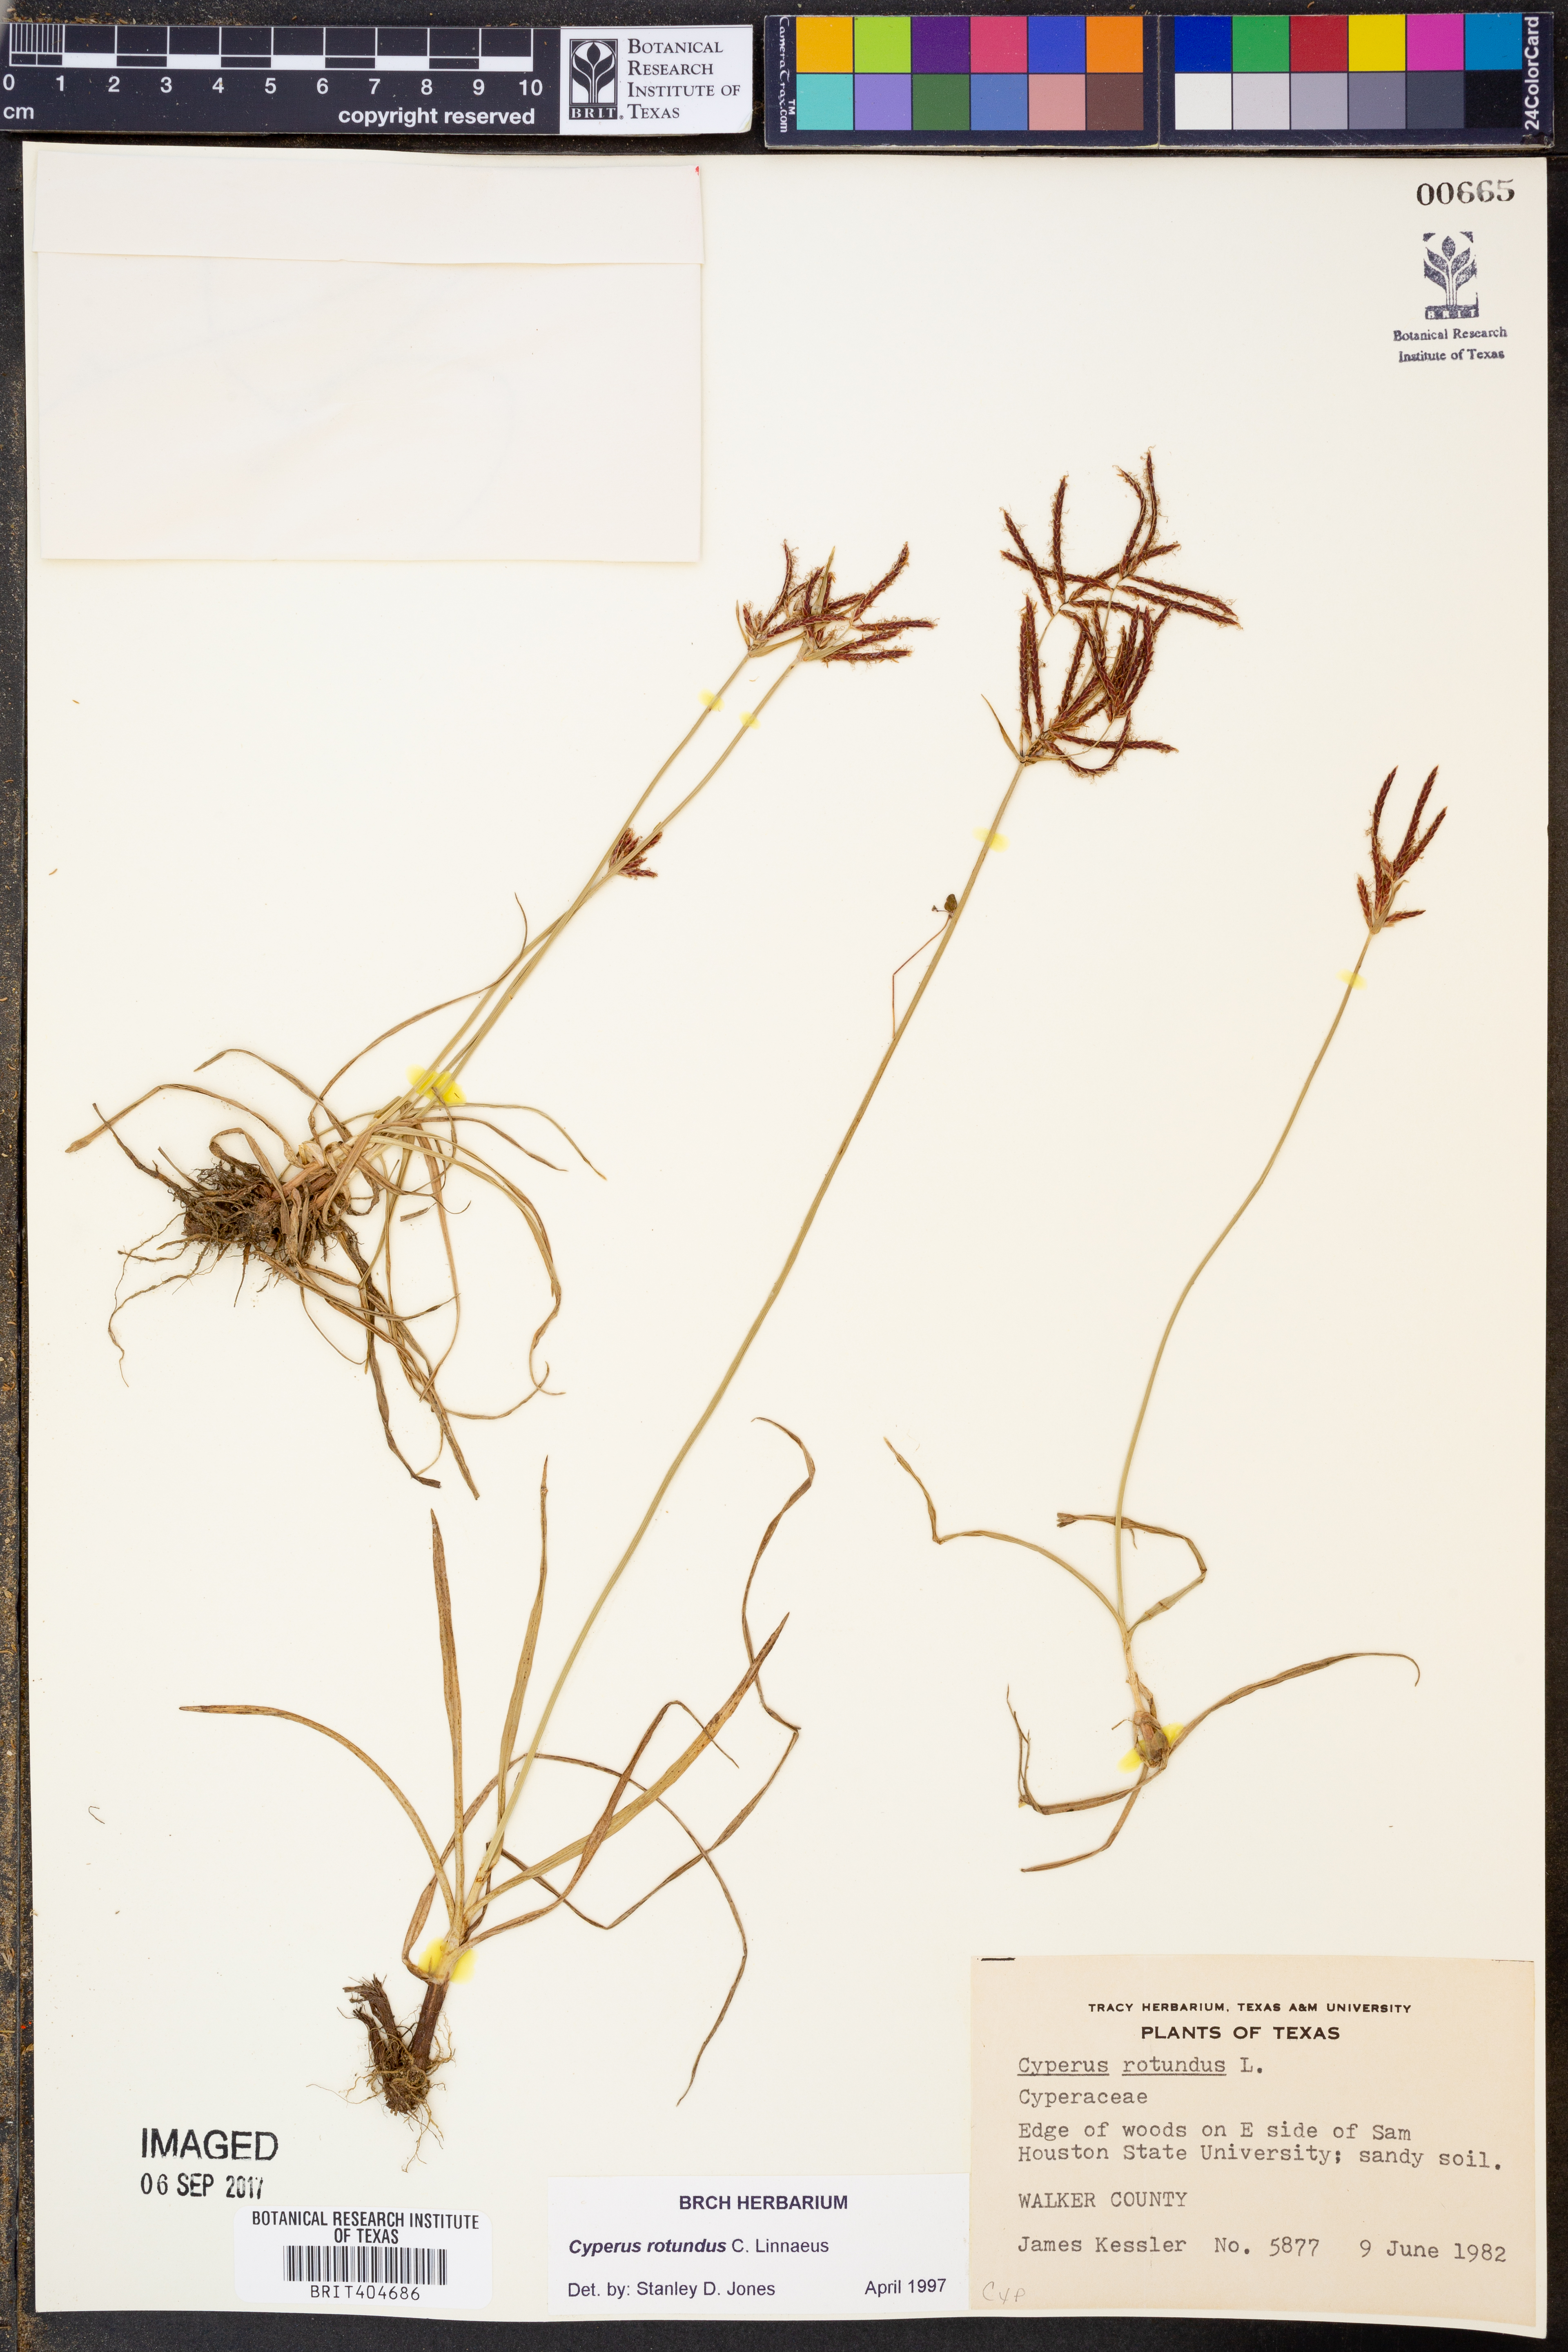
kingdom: Plantae
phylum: Tracheophyta
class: Liliopsida
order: Poales
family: Cyperaceae
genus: Cyperus
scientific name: Cyperus rotundus
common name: Nutgrass
